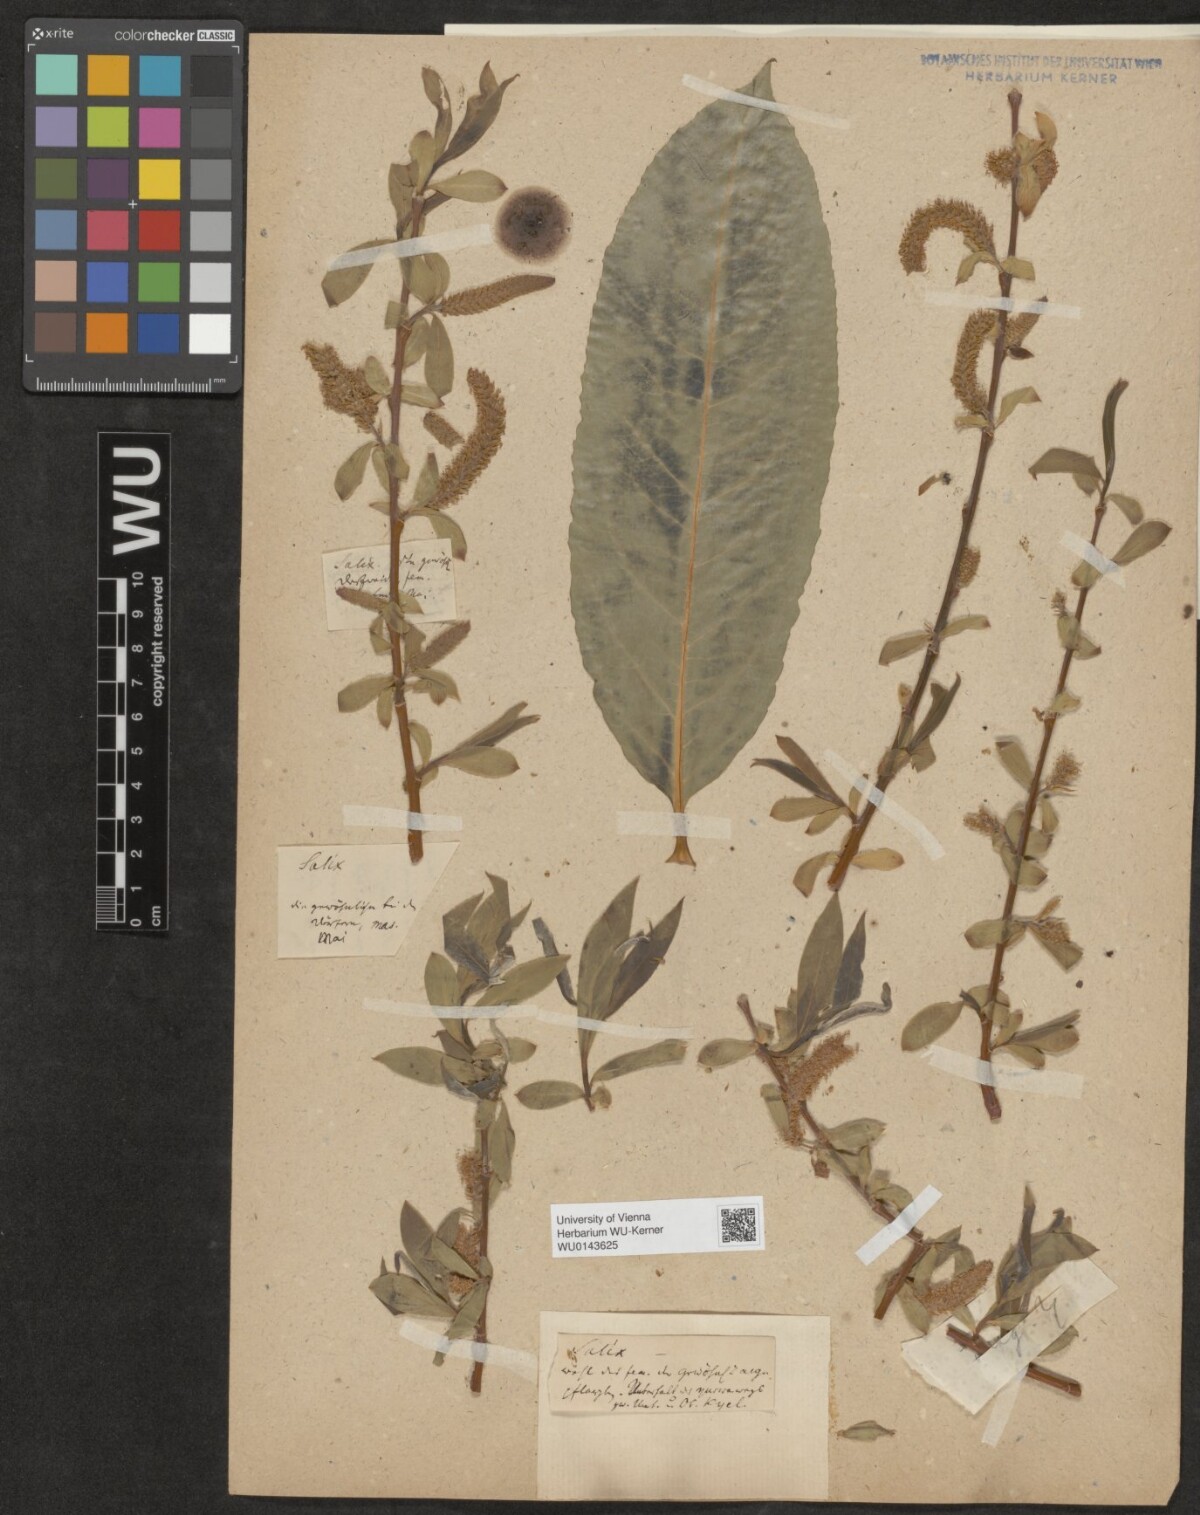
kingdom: Plantae
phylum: Tracheophyta
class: Magnoliopsida
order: Malpighiales
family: Salicaceae
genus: Salix
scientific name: Salix
